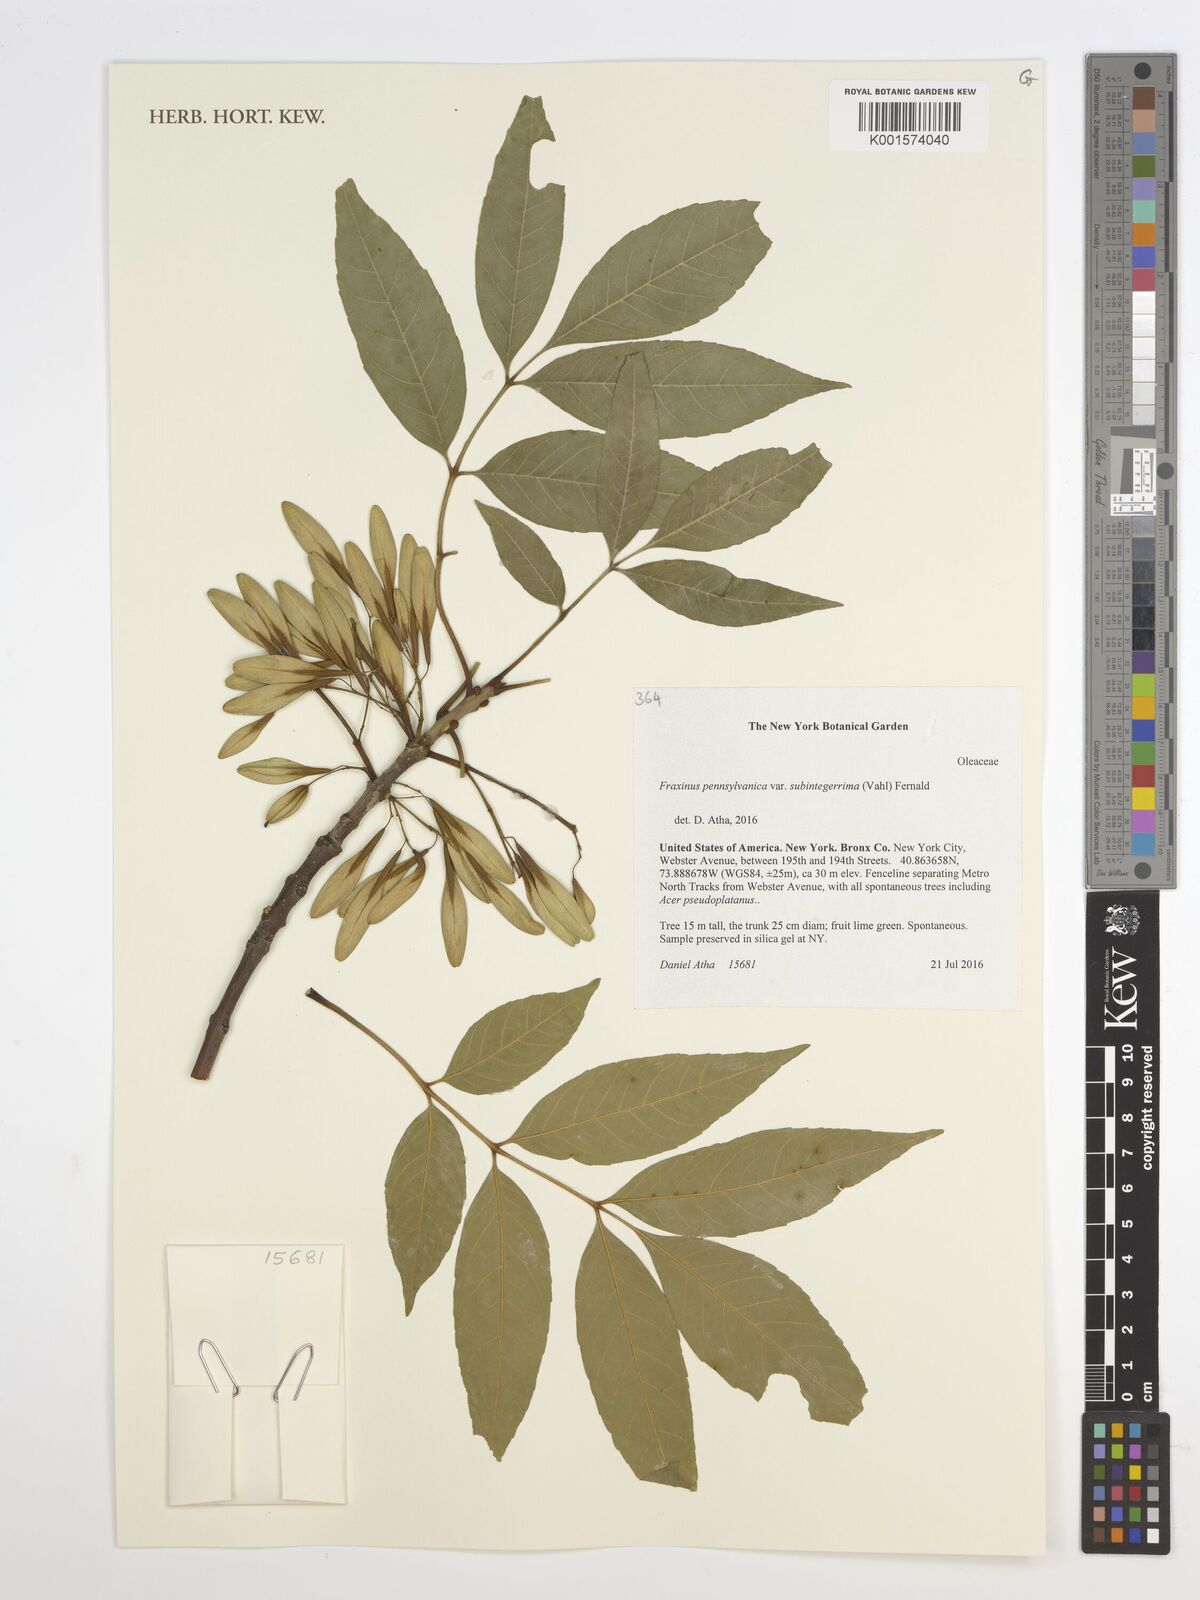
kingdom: Plantae
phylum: Tracheophyta
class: Magnoliopsida
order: Lamiales
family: Oleaceae
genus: Fraxinus
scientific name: Fraxinus pennsylvanica
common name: Green ash
